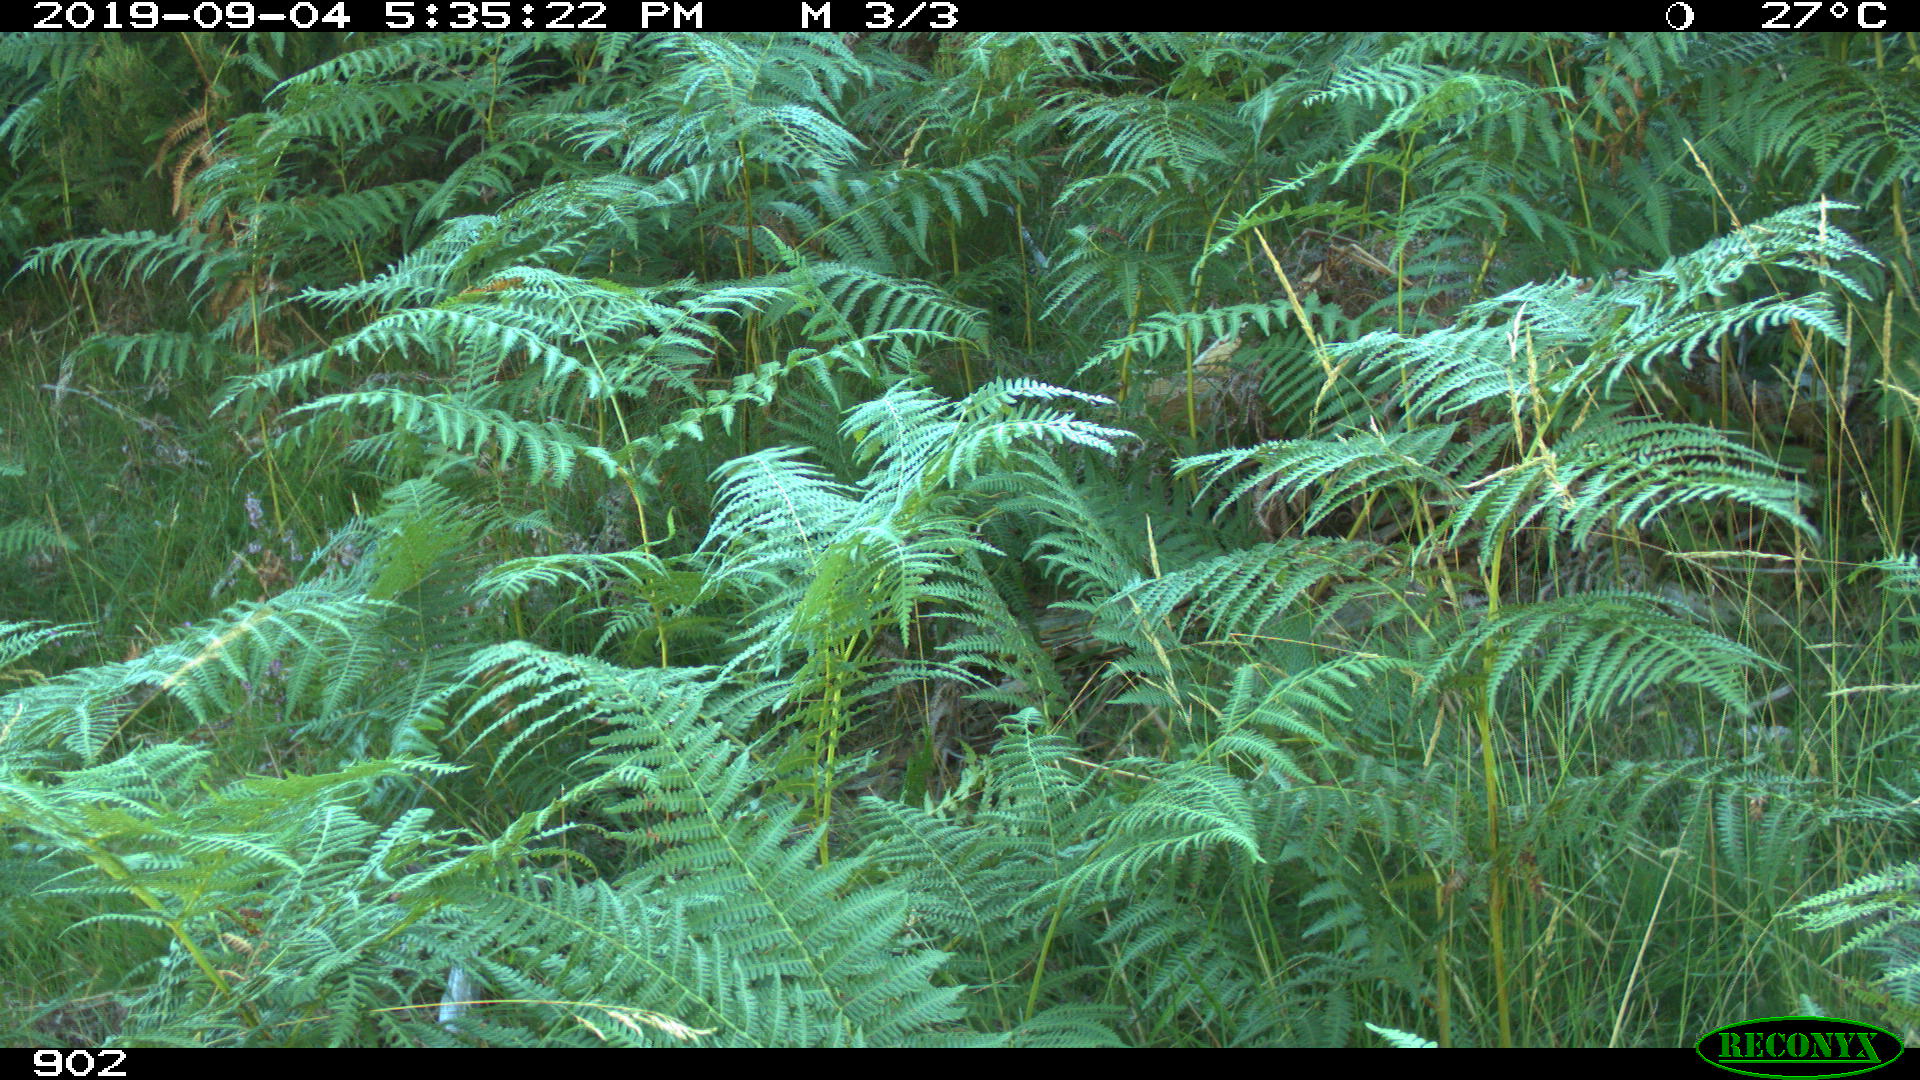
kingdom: Animalia
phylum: Chordata
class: Mammalia
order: Artiodactyla
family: Suidae
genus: Sus
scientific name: Sus scrofa
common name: Wild boar
